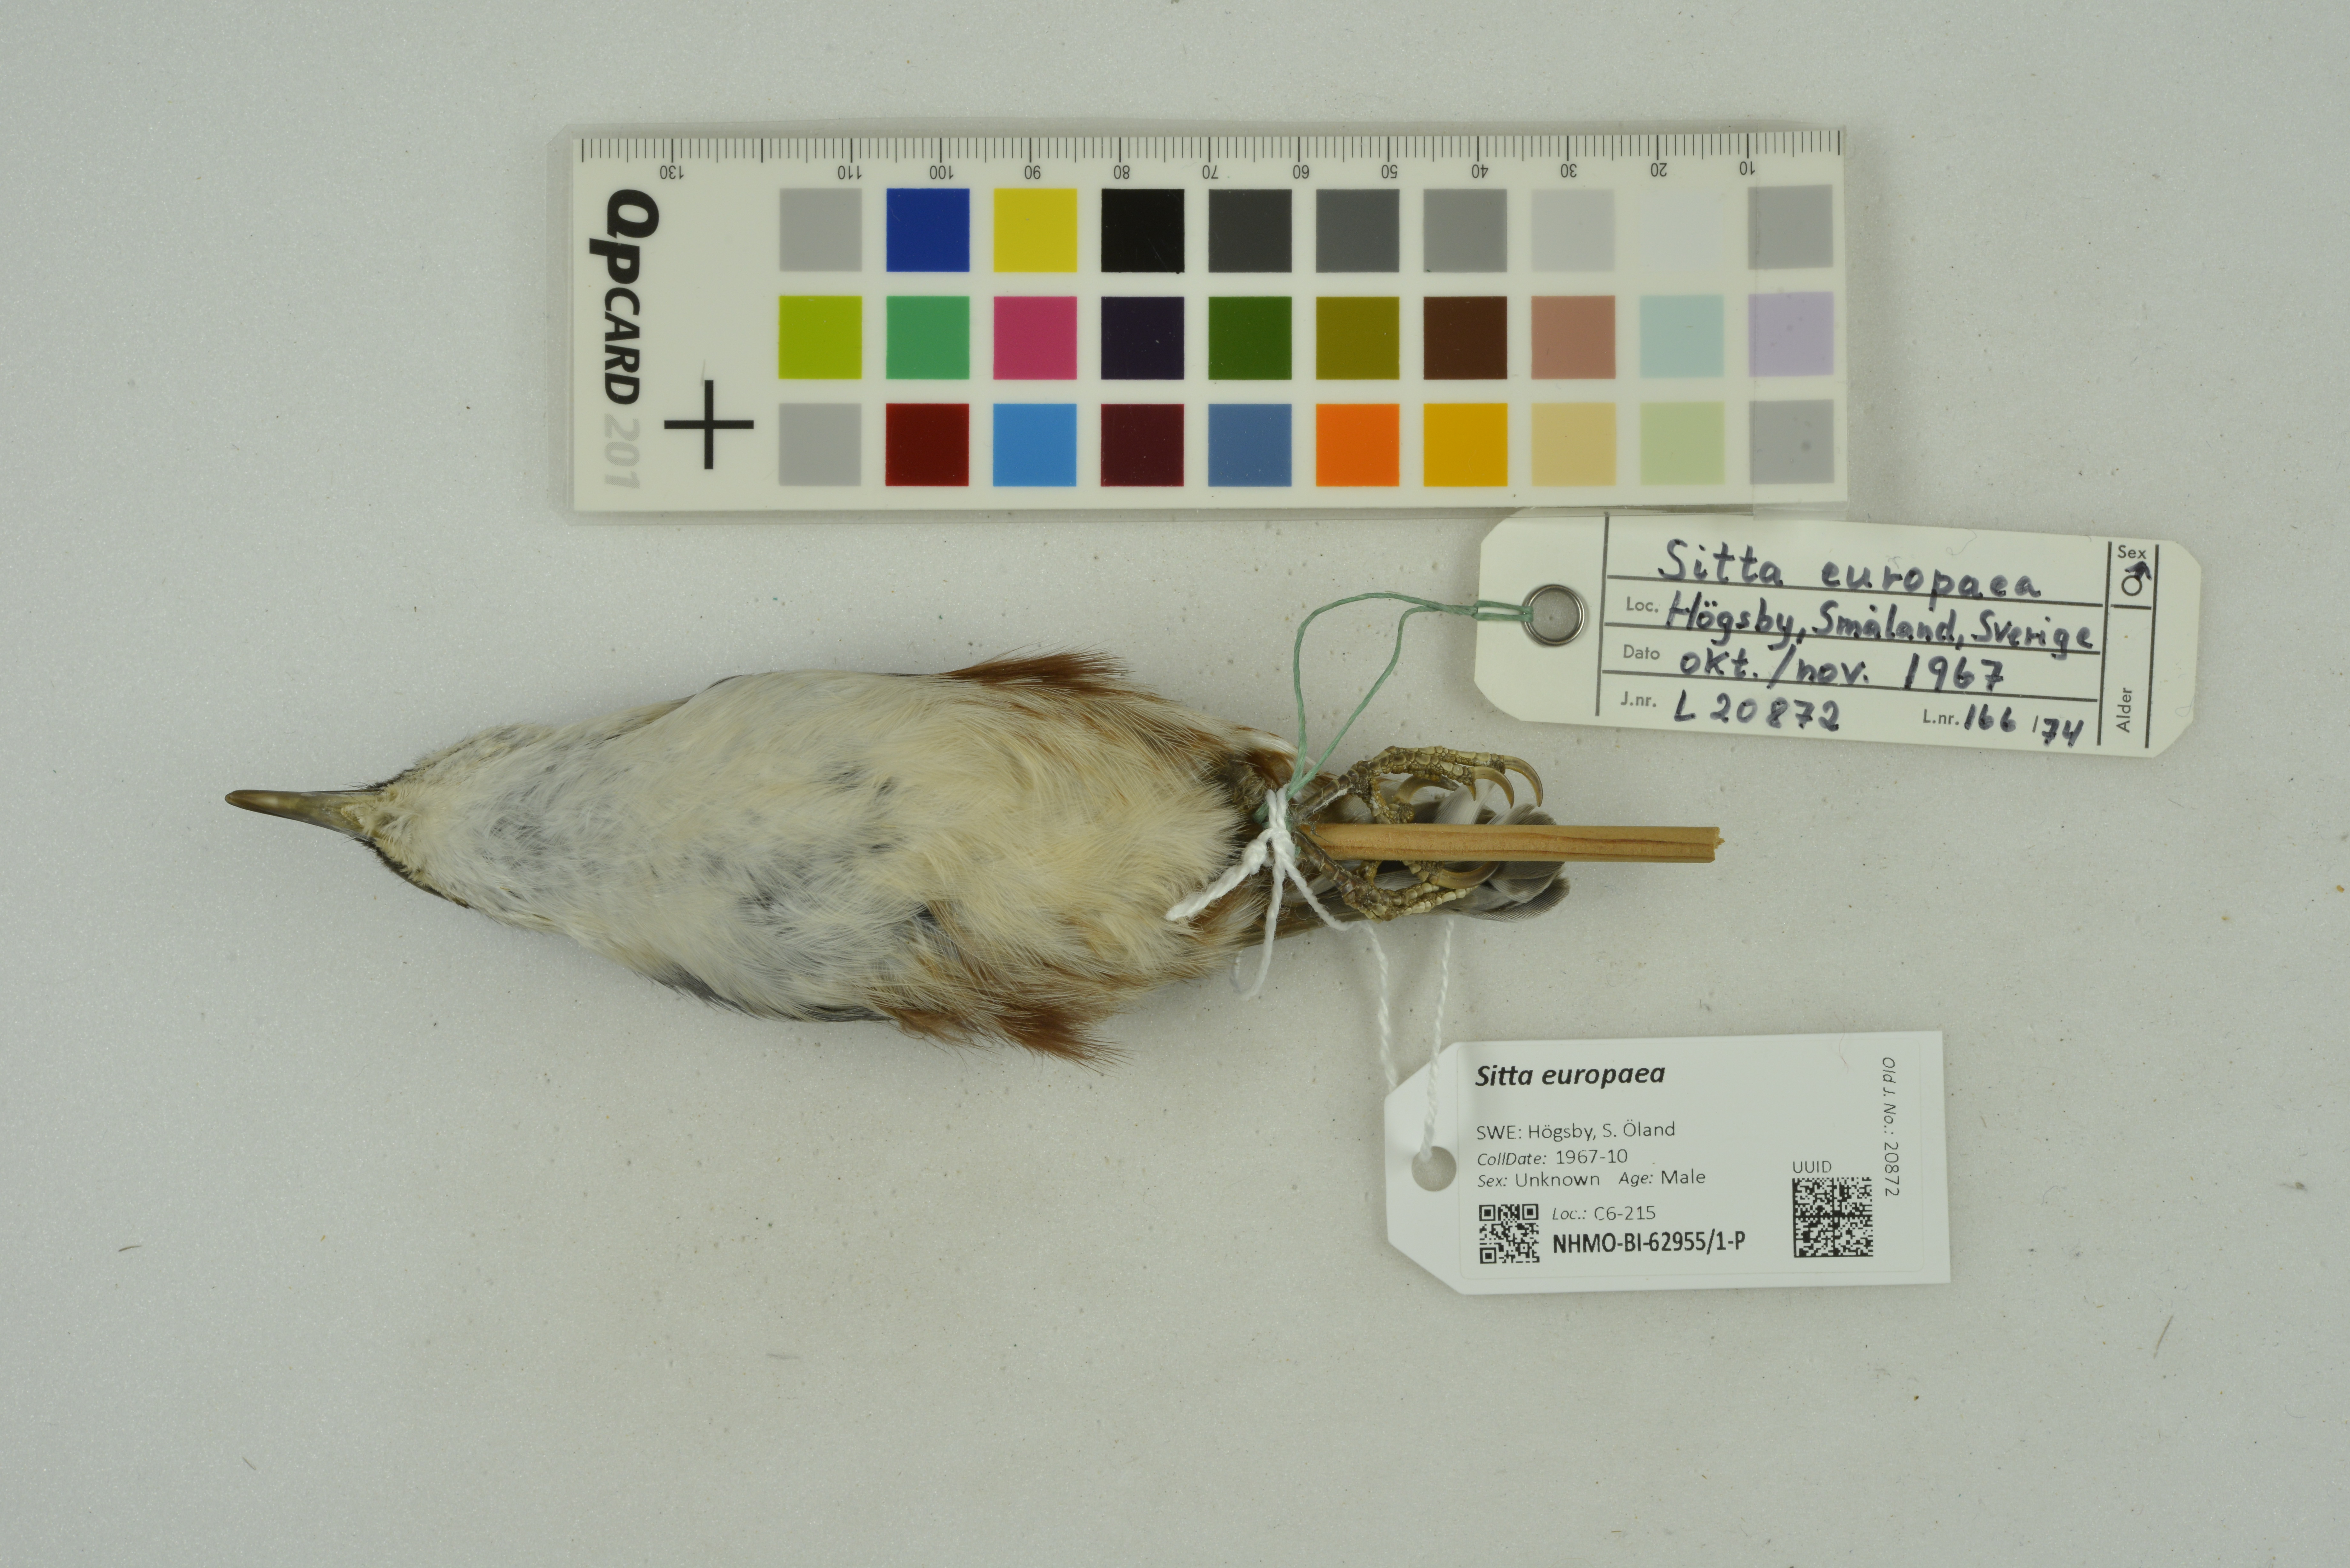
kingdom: Animalia
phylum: Chordata
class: Aves
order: Passeriformes
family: Sittidae
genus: Sitta
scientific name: Sitta europaea
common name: Eurasian nuthatch
